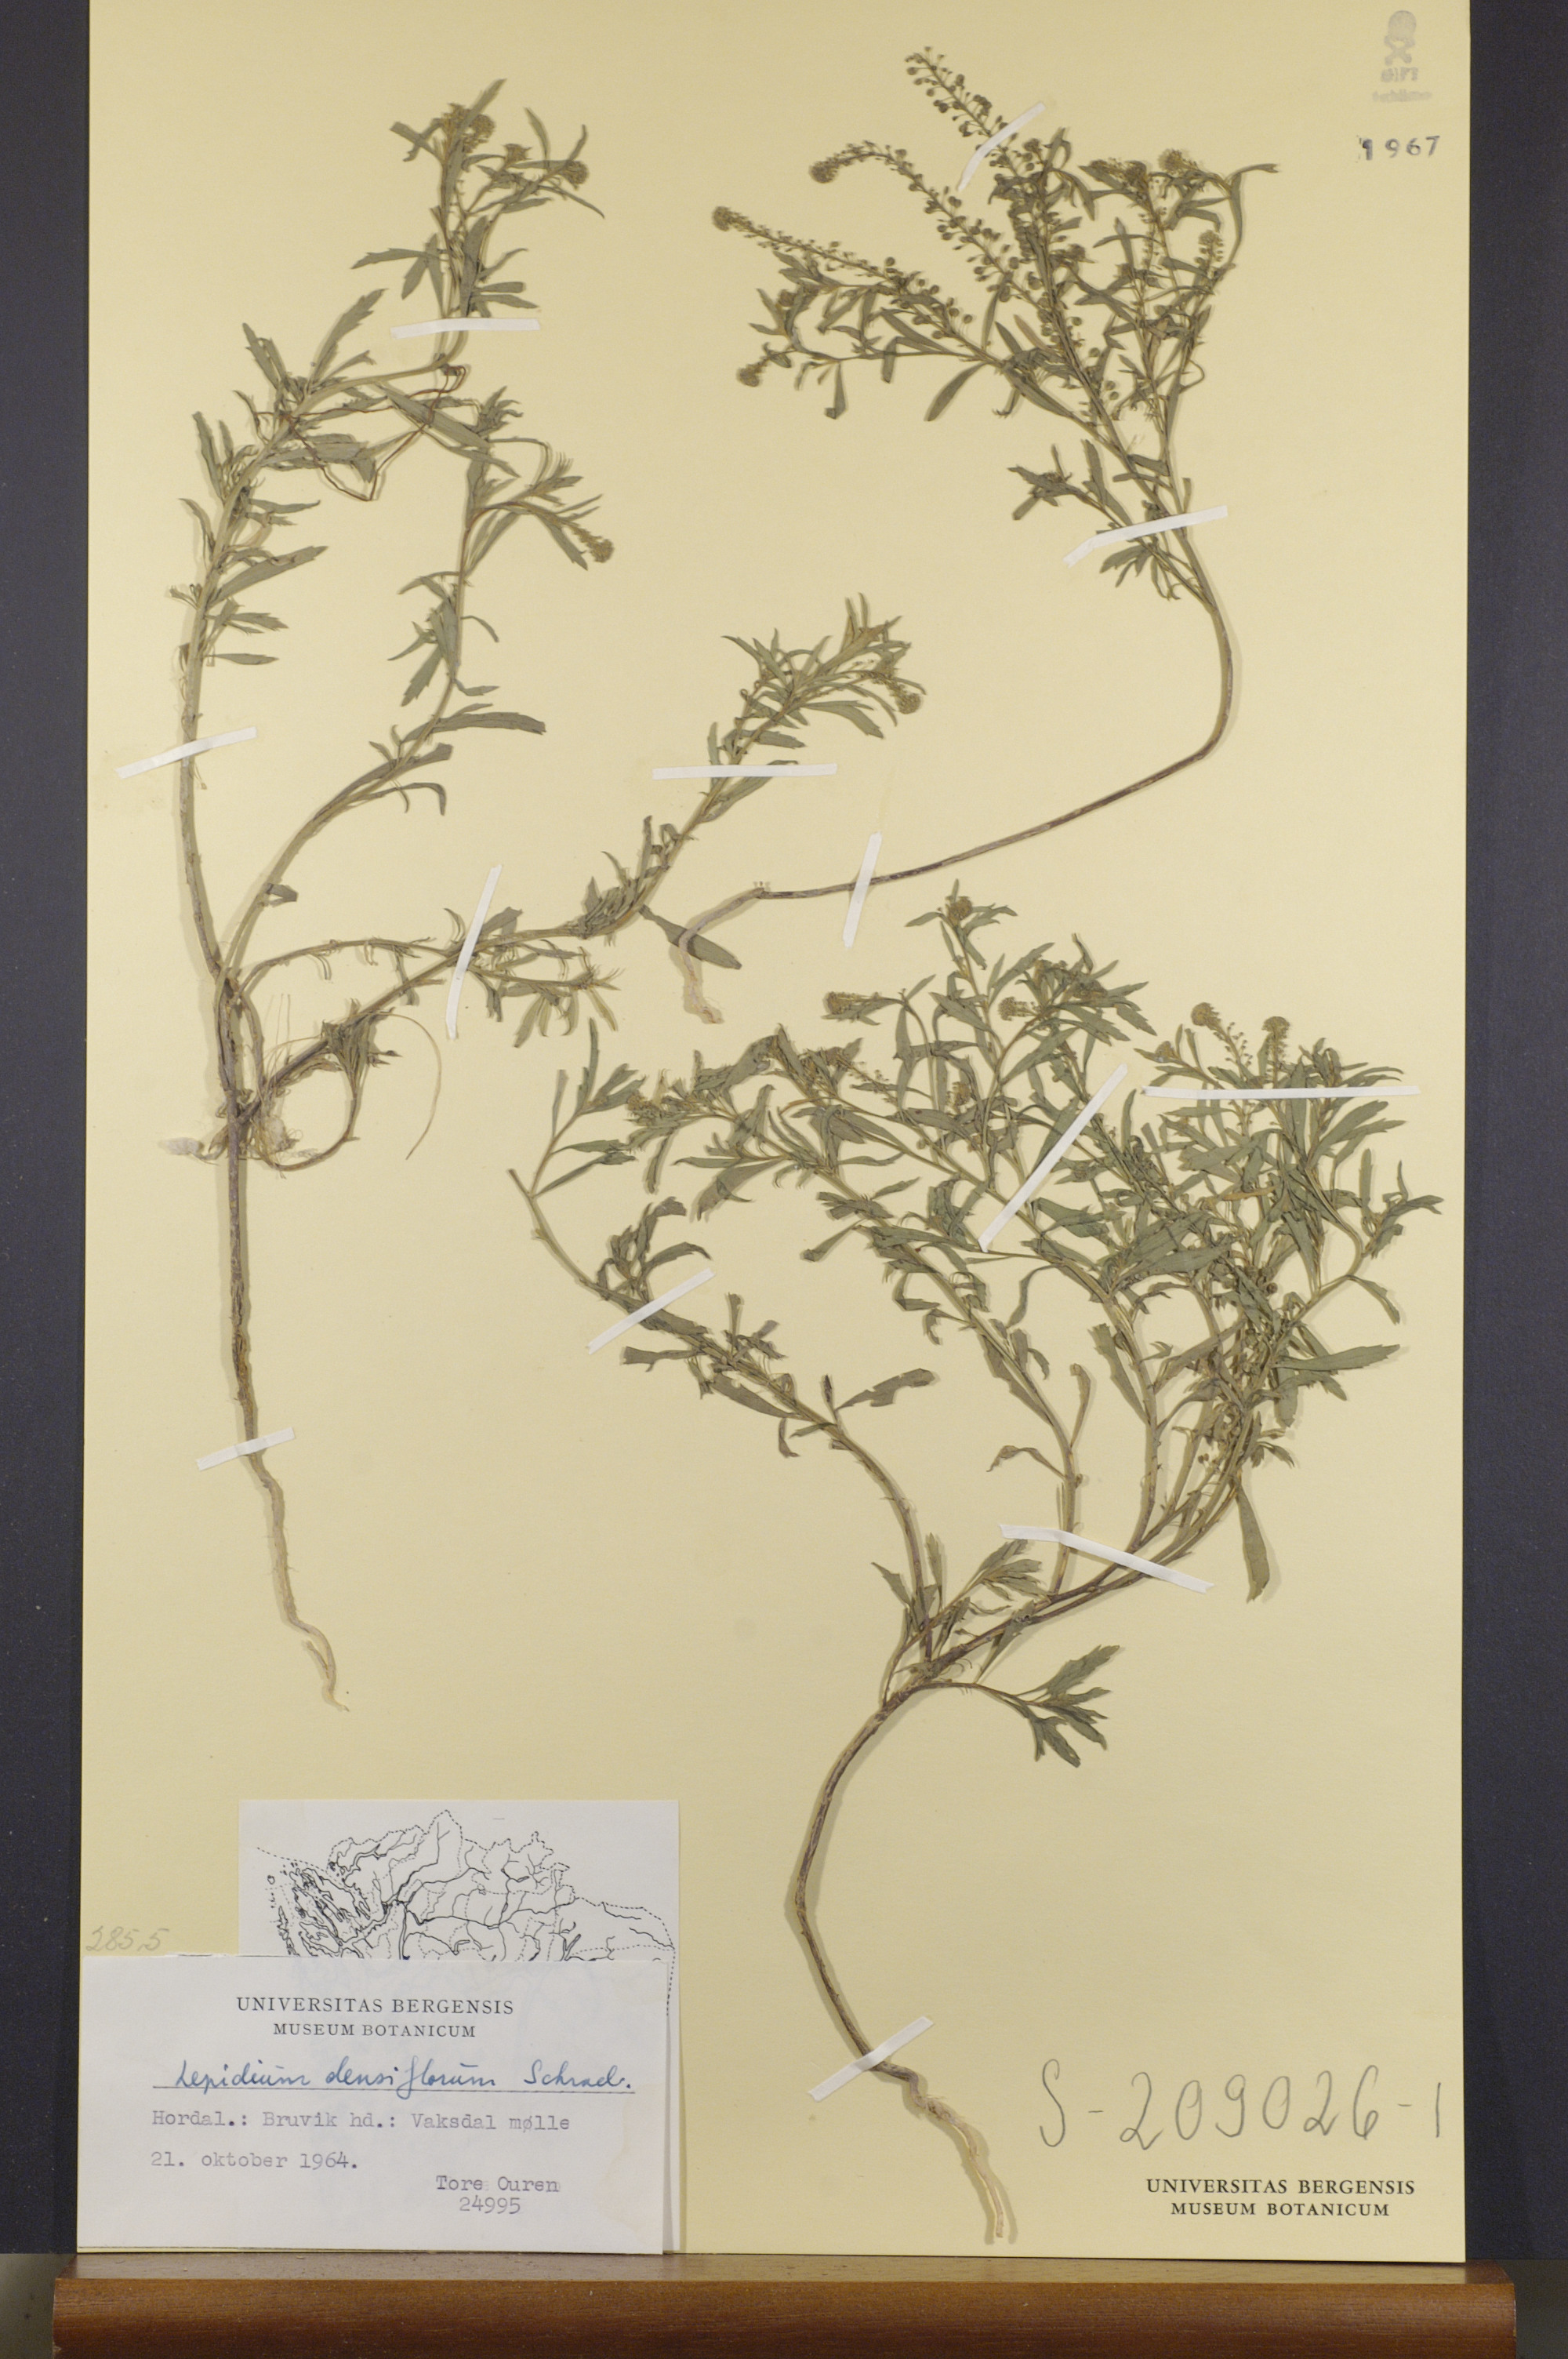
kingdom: Plantae
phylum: Tracheophyta
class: Magnoliopsida
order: Brassicales
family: Brassicaceae
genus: Lepidium
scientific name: Lepidium densiflorum
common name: Miner's pepperwort
